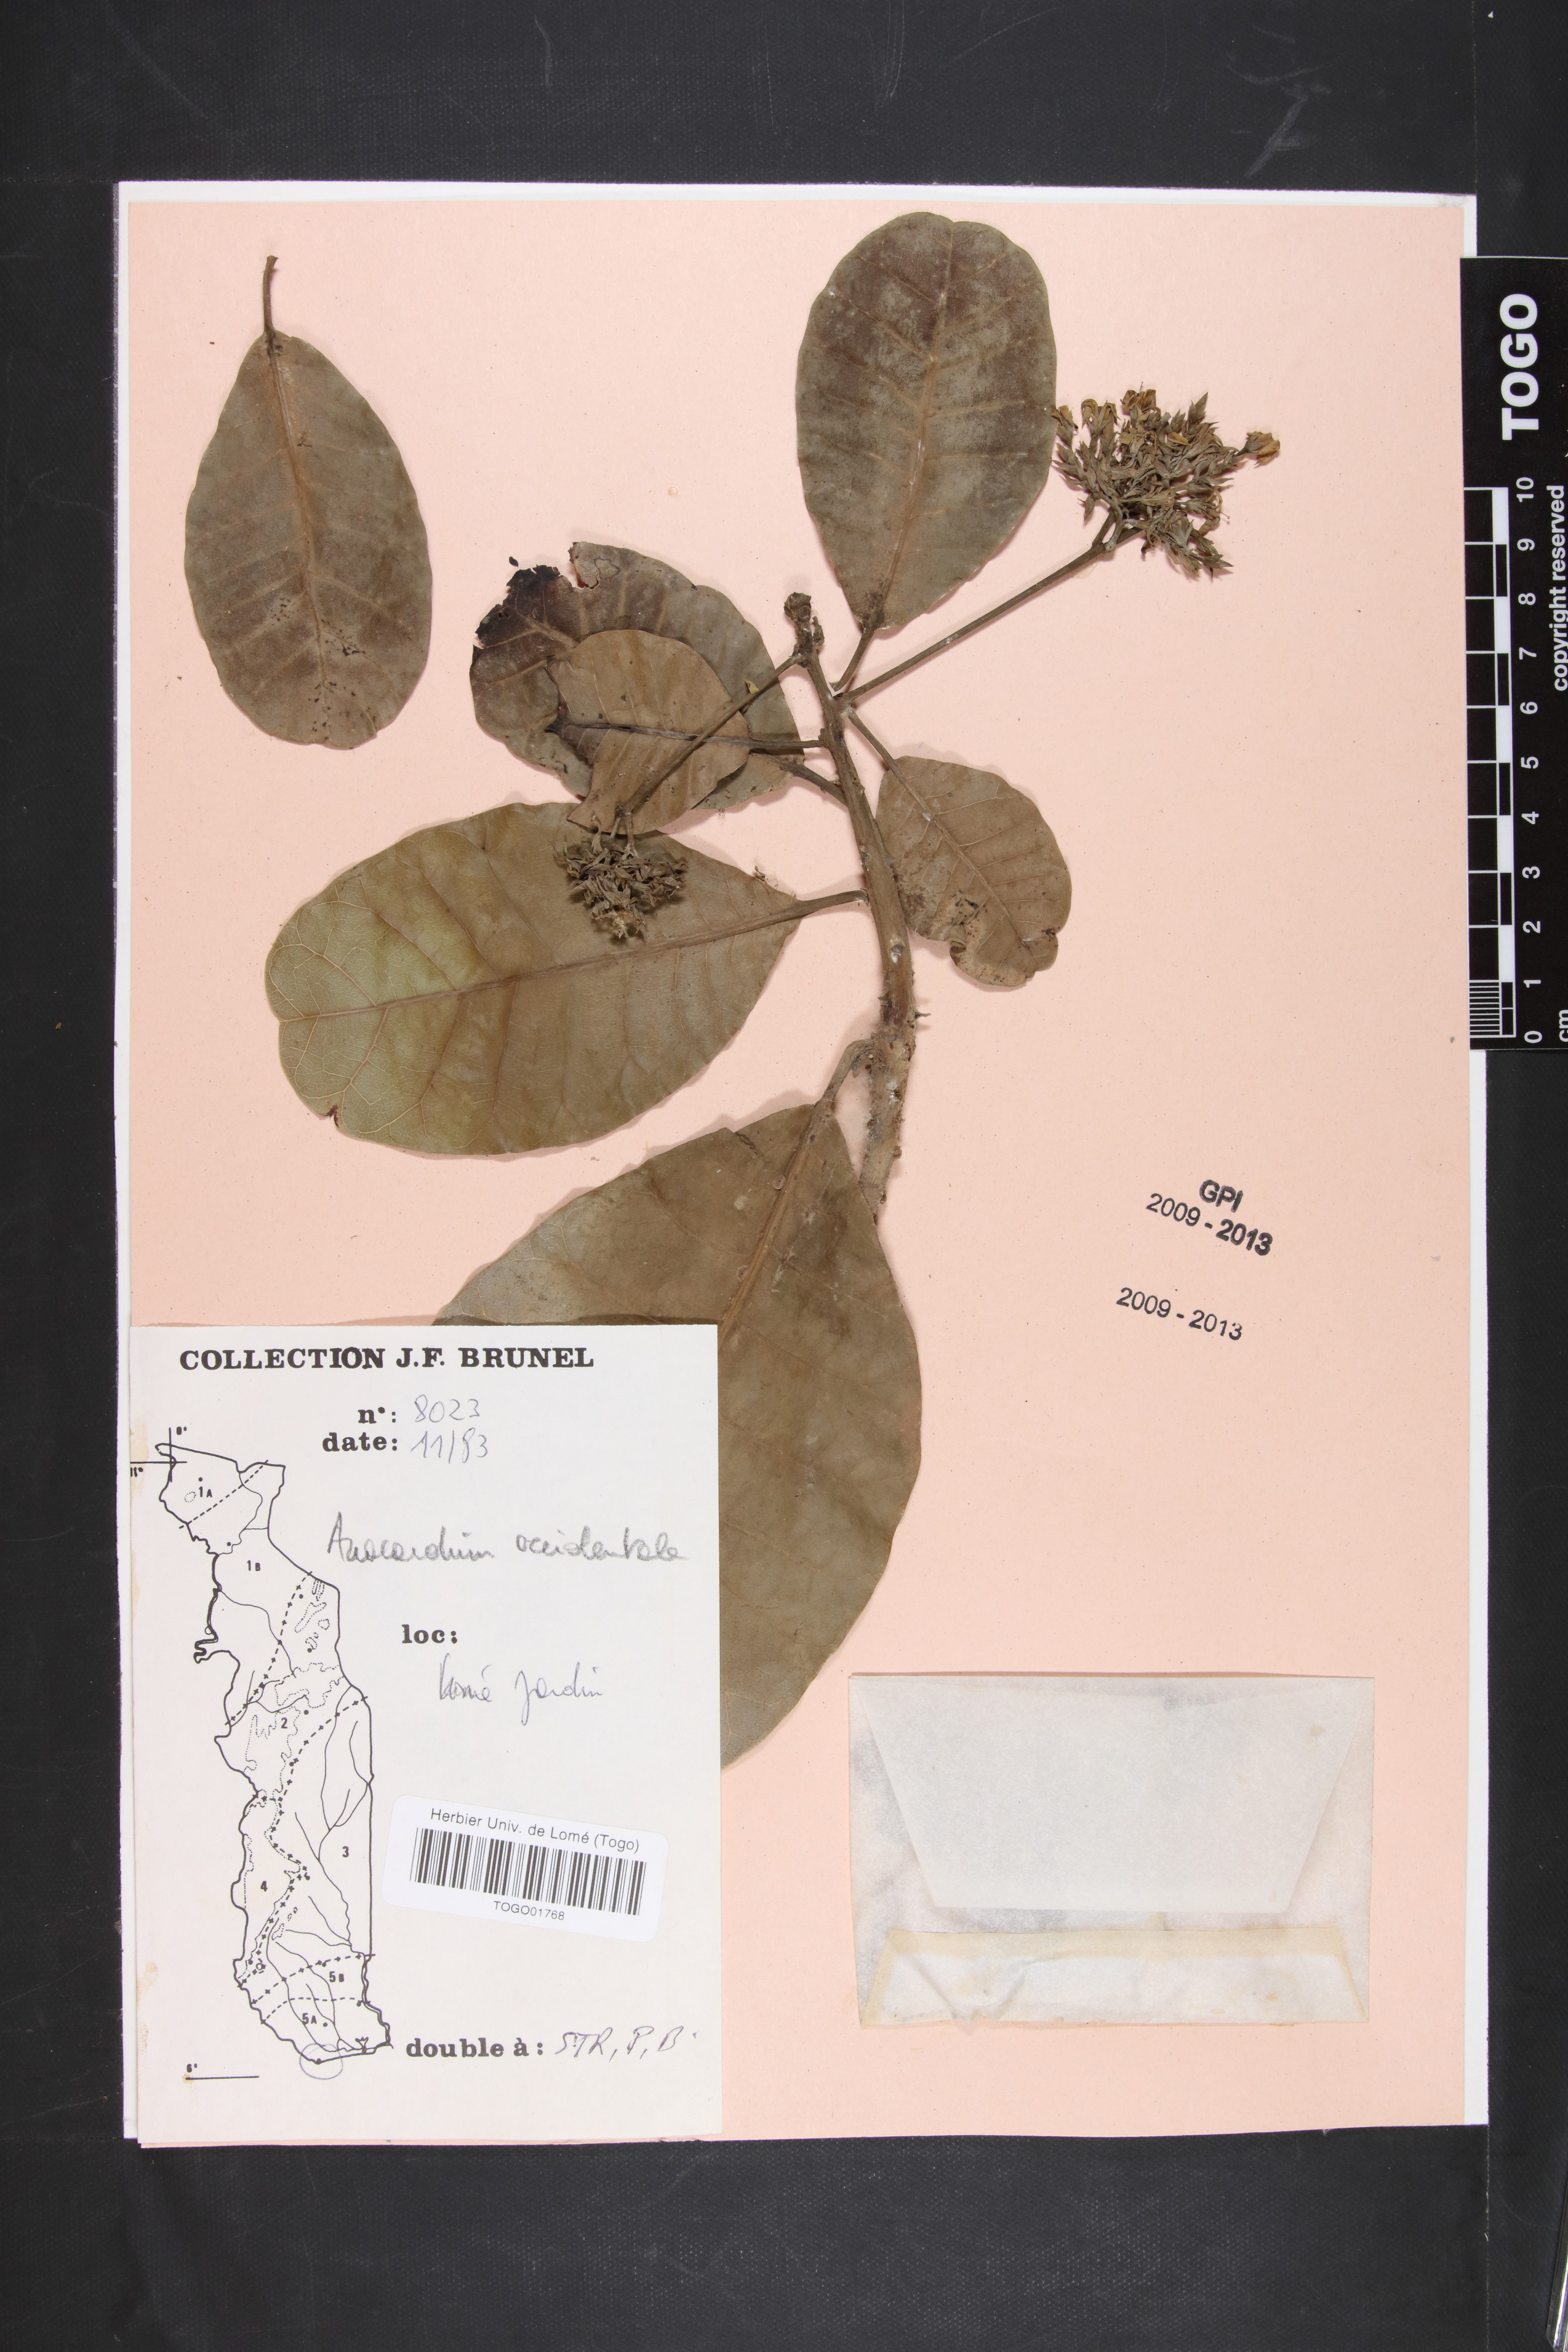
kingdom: Plantae
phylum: Tracheophyta
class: Magnoliopsida
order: Sapindales
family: Anacardiaceae
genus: Anacardium
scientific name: Anacardium occidentale
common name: Cashew
